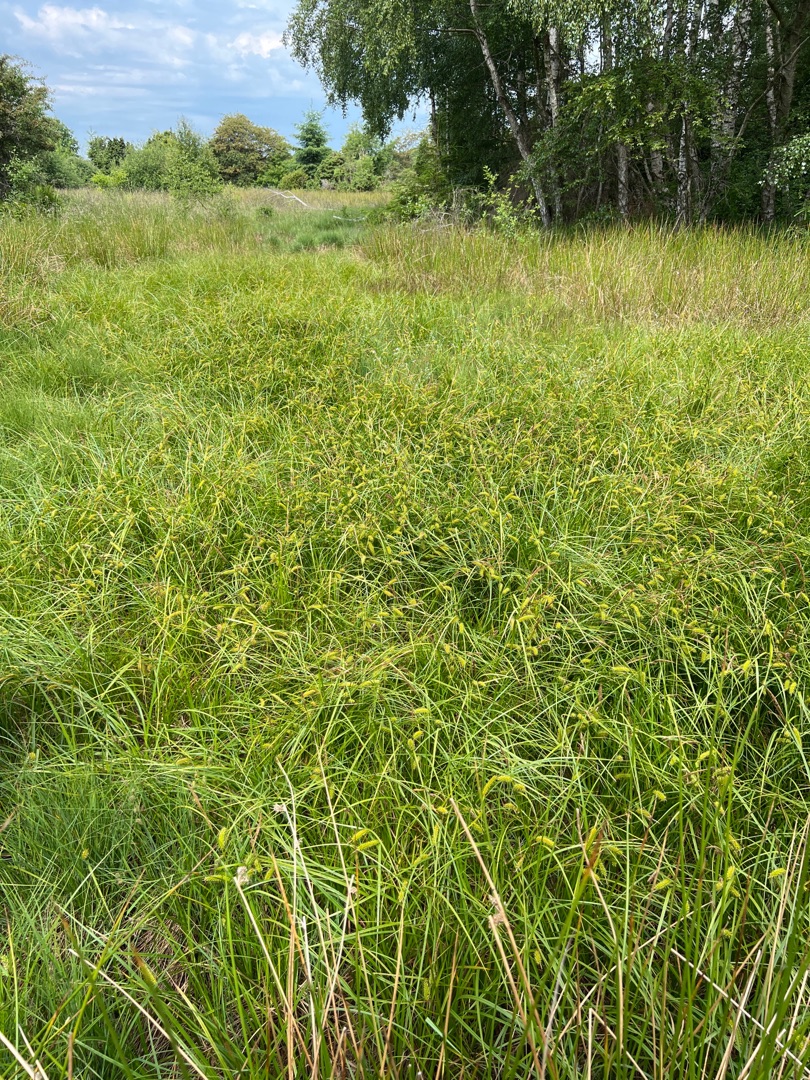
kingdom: Plantae
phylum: Tracheophyta
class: Liliopsida
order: Poales
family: Cyperaceae
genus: Carex
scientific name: Carex vesicaria
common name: Blære-star
